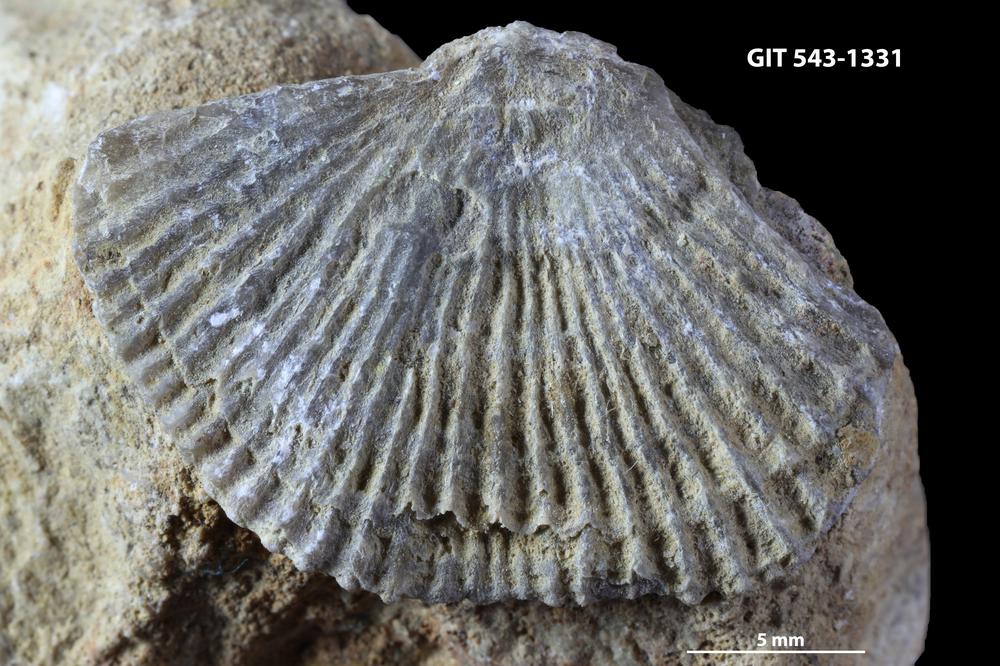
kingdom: Animalia
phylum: Brachiopoda
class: Rhynchonellata
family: Clitambonitidae
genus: Vellamo
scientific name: Vellamo
